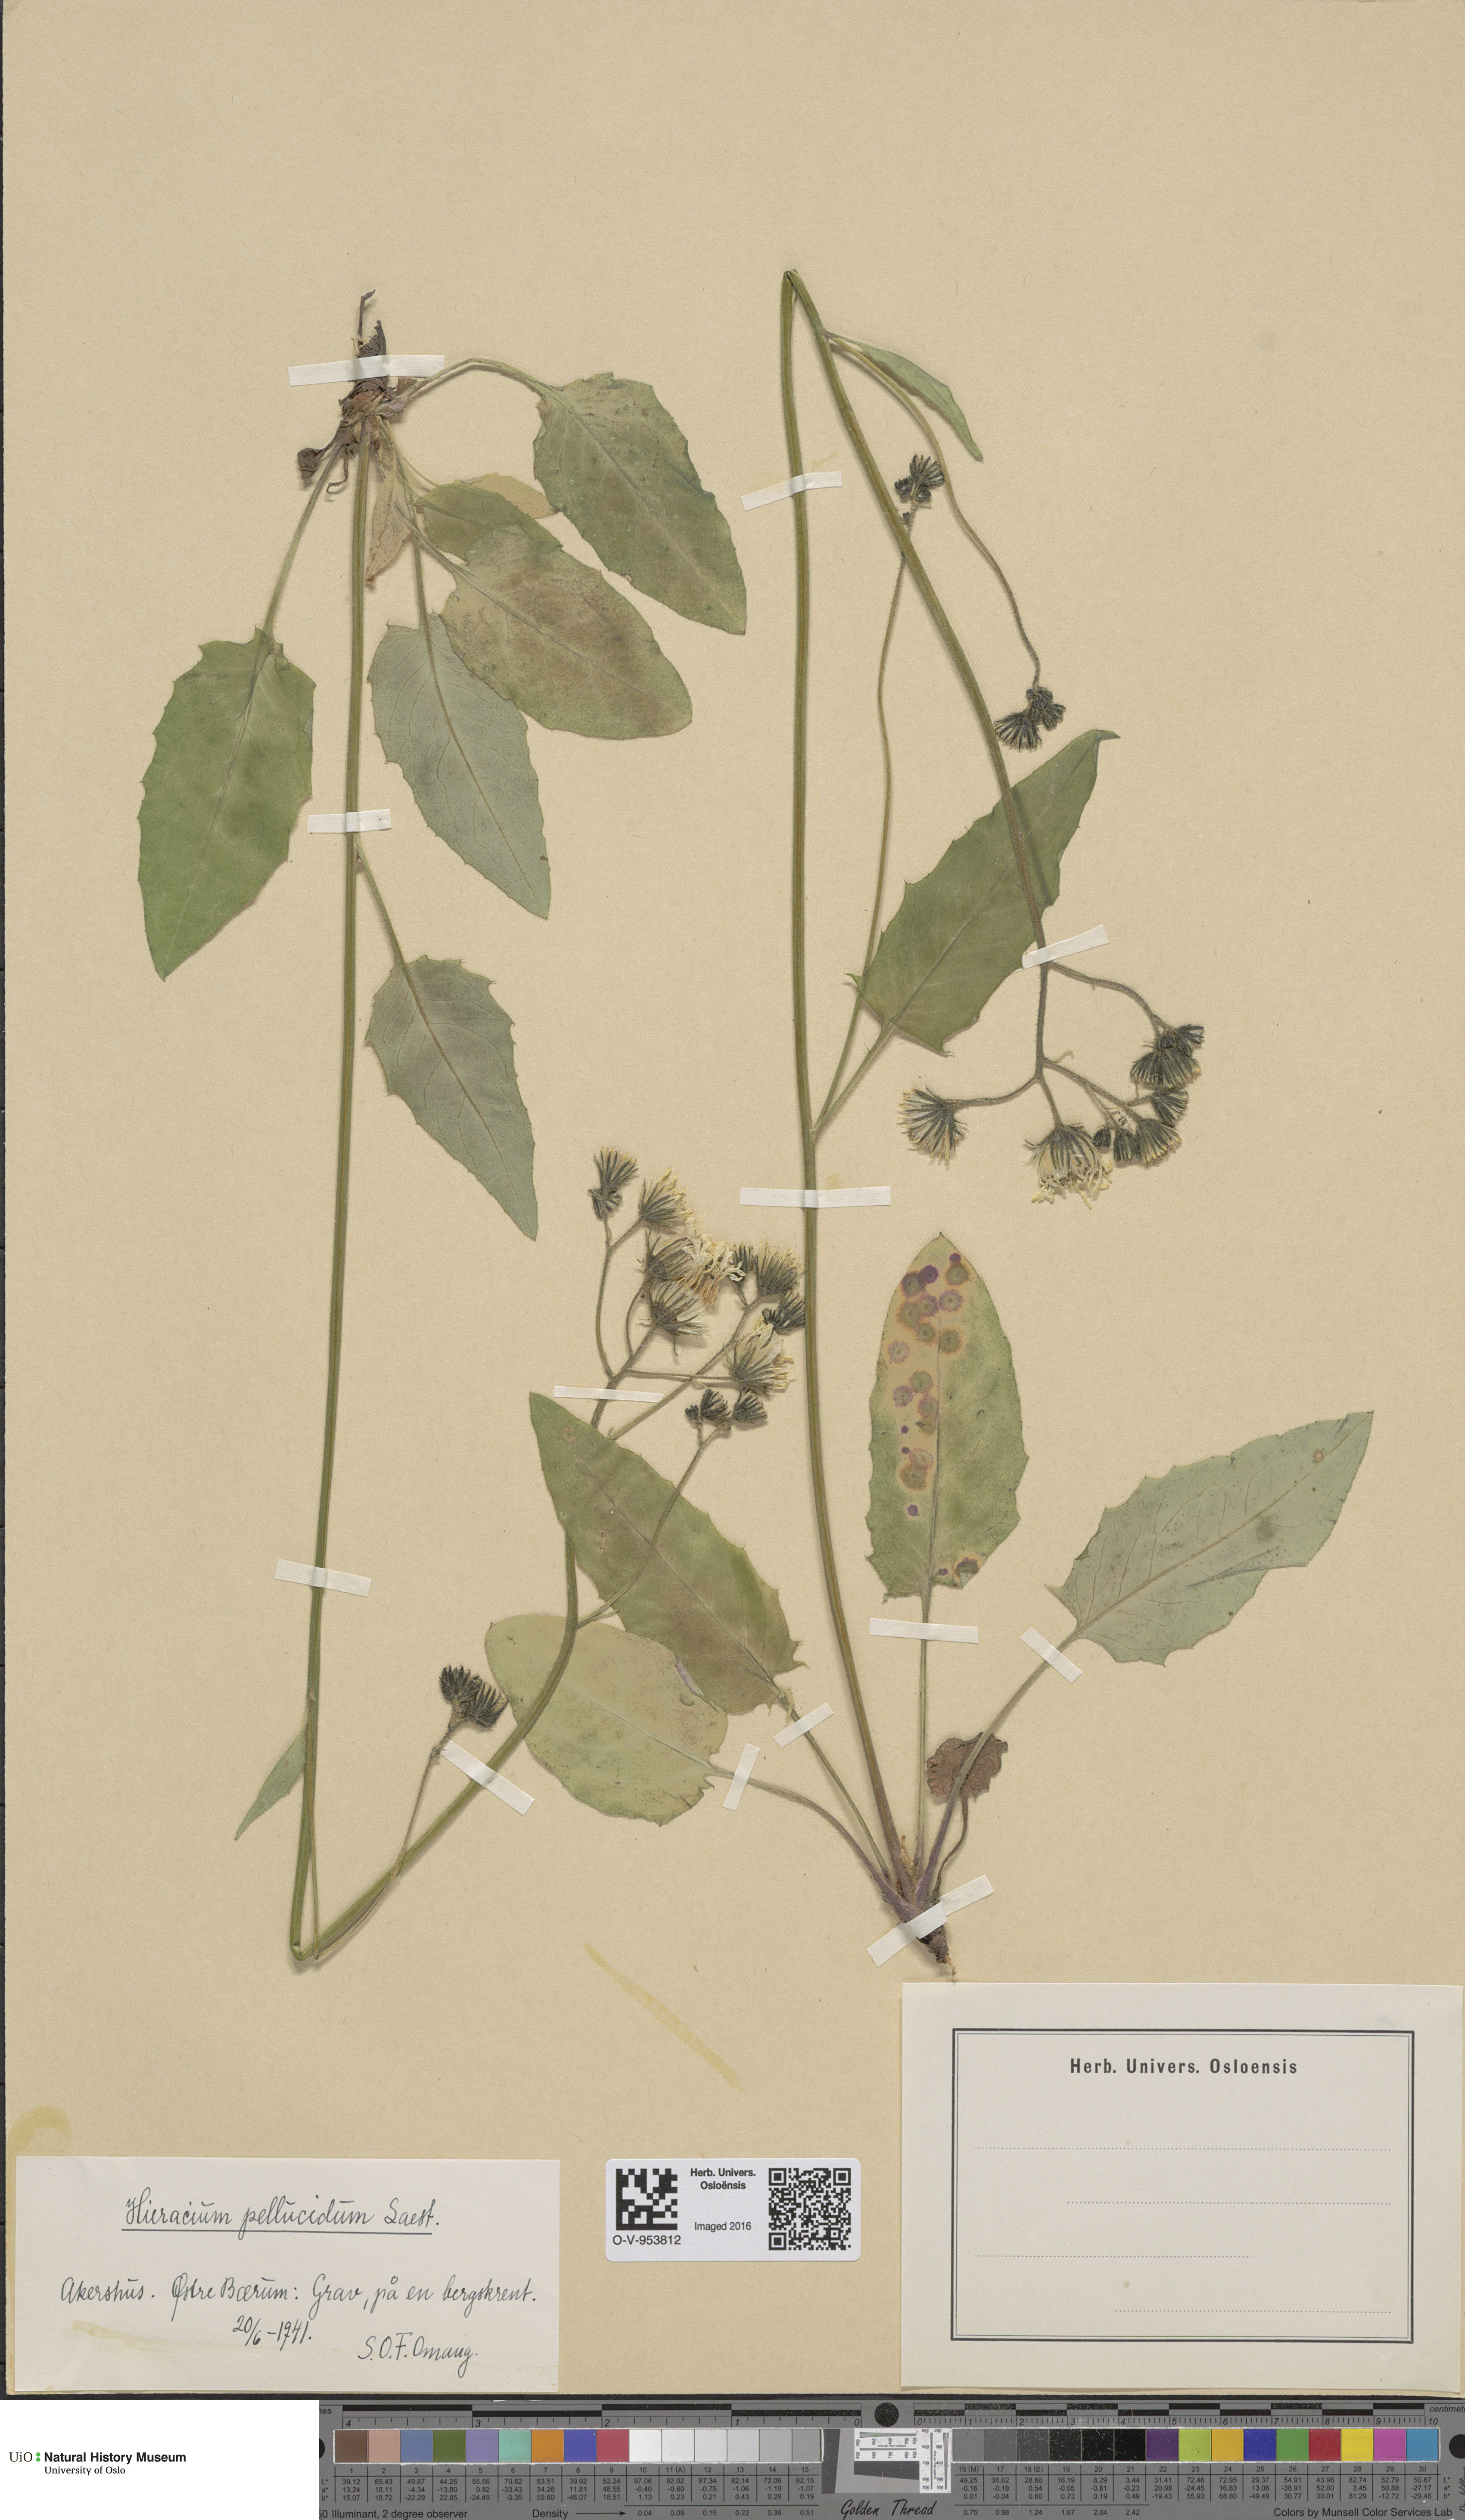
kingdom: Plantae
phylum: Tracheophyta
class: Magnoliopsida
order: Asterales
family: Asteraceae
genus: Hieracium
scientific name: Hieracium
